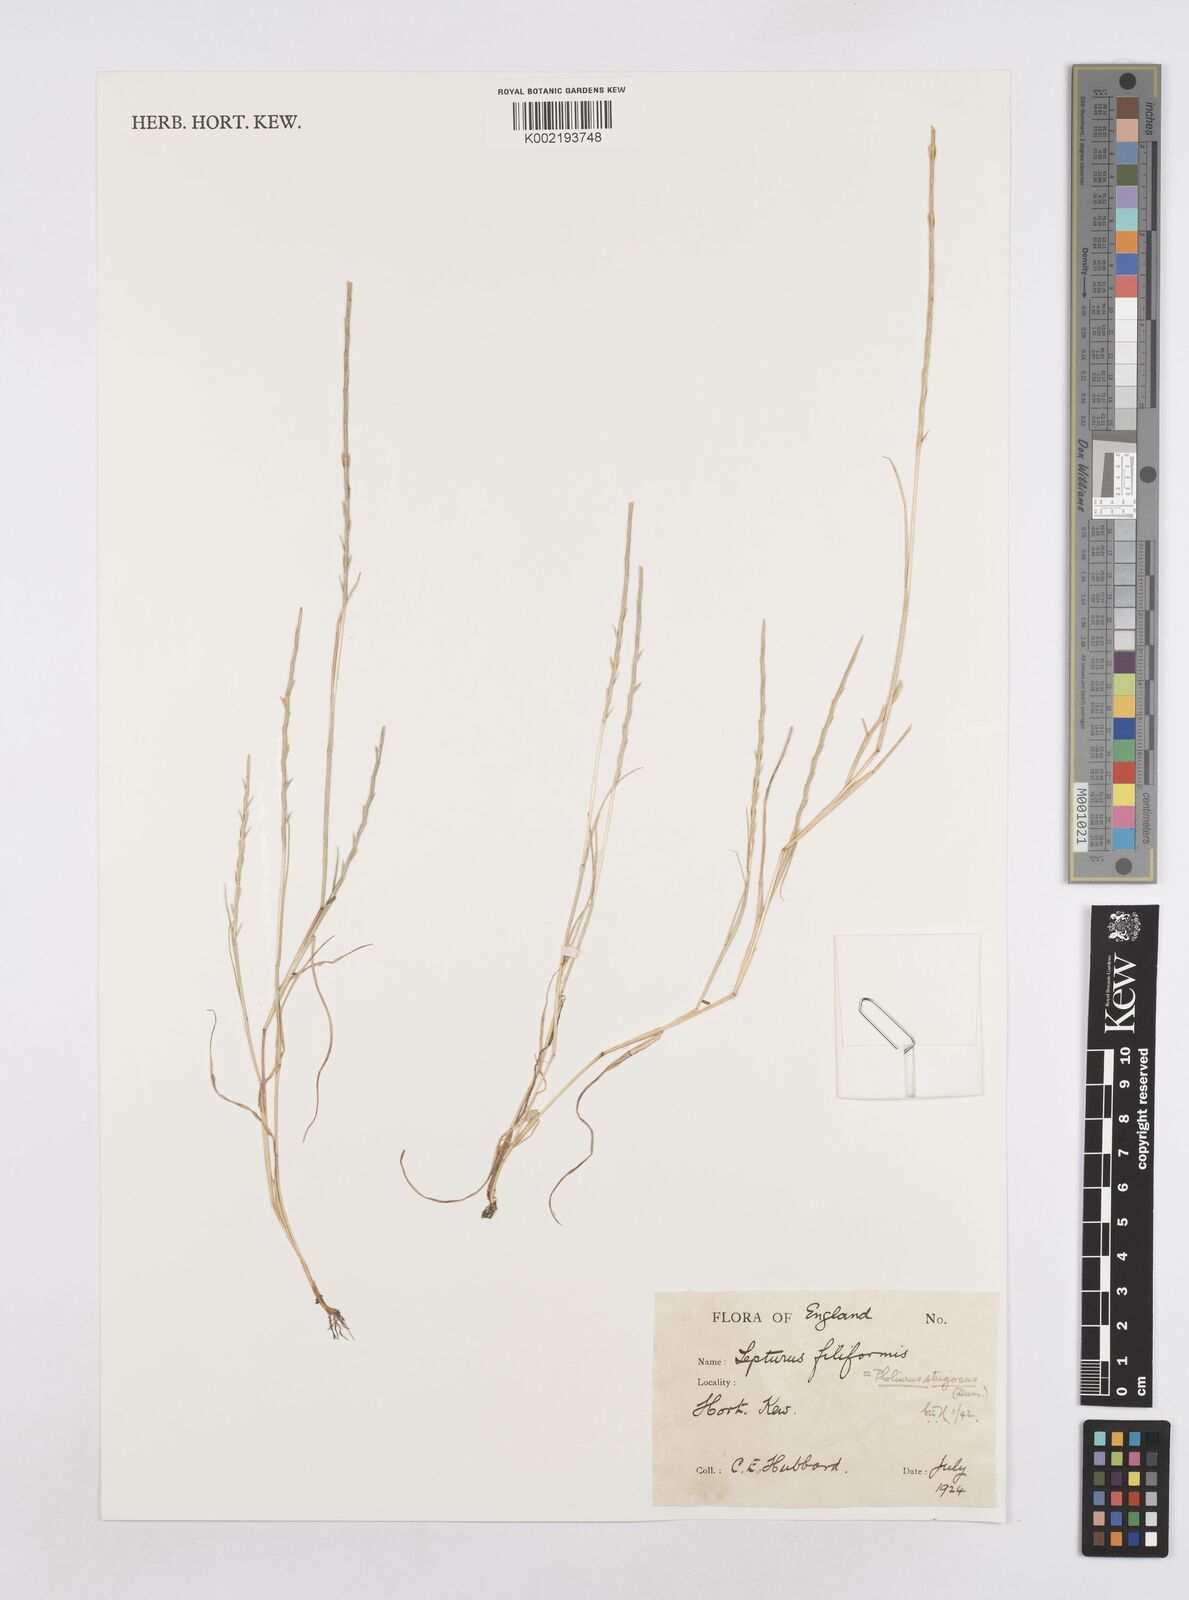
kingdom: Plantae
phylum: Tracheophyta
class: Liliopsida
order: Poales
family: Poaceae
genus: Parapholis
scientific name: Parapholis
